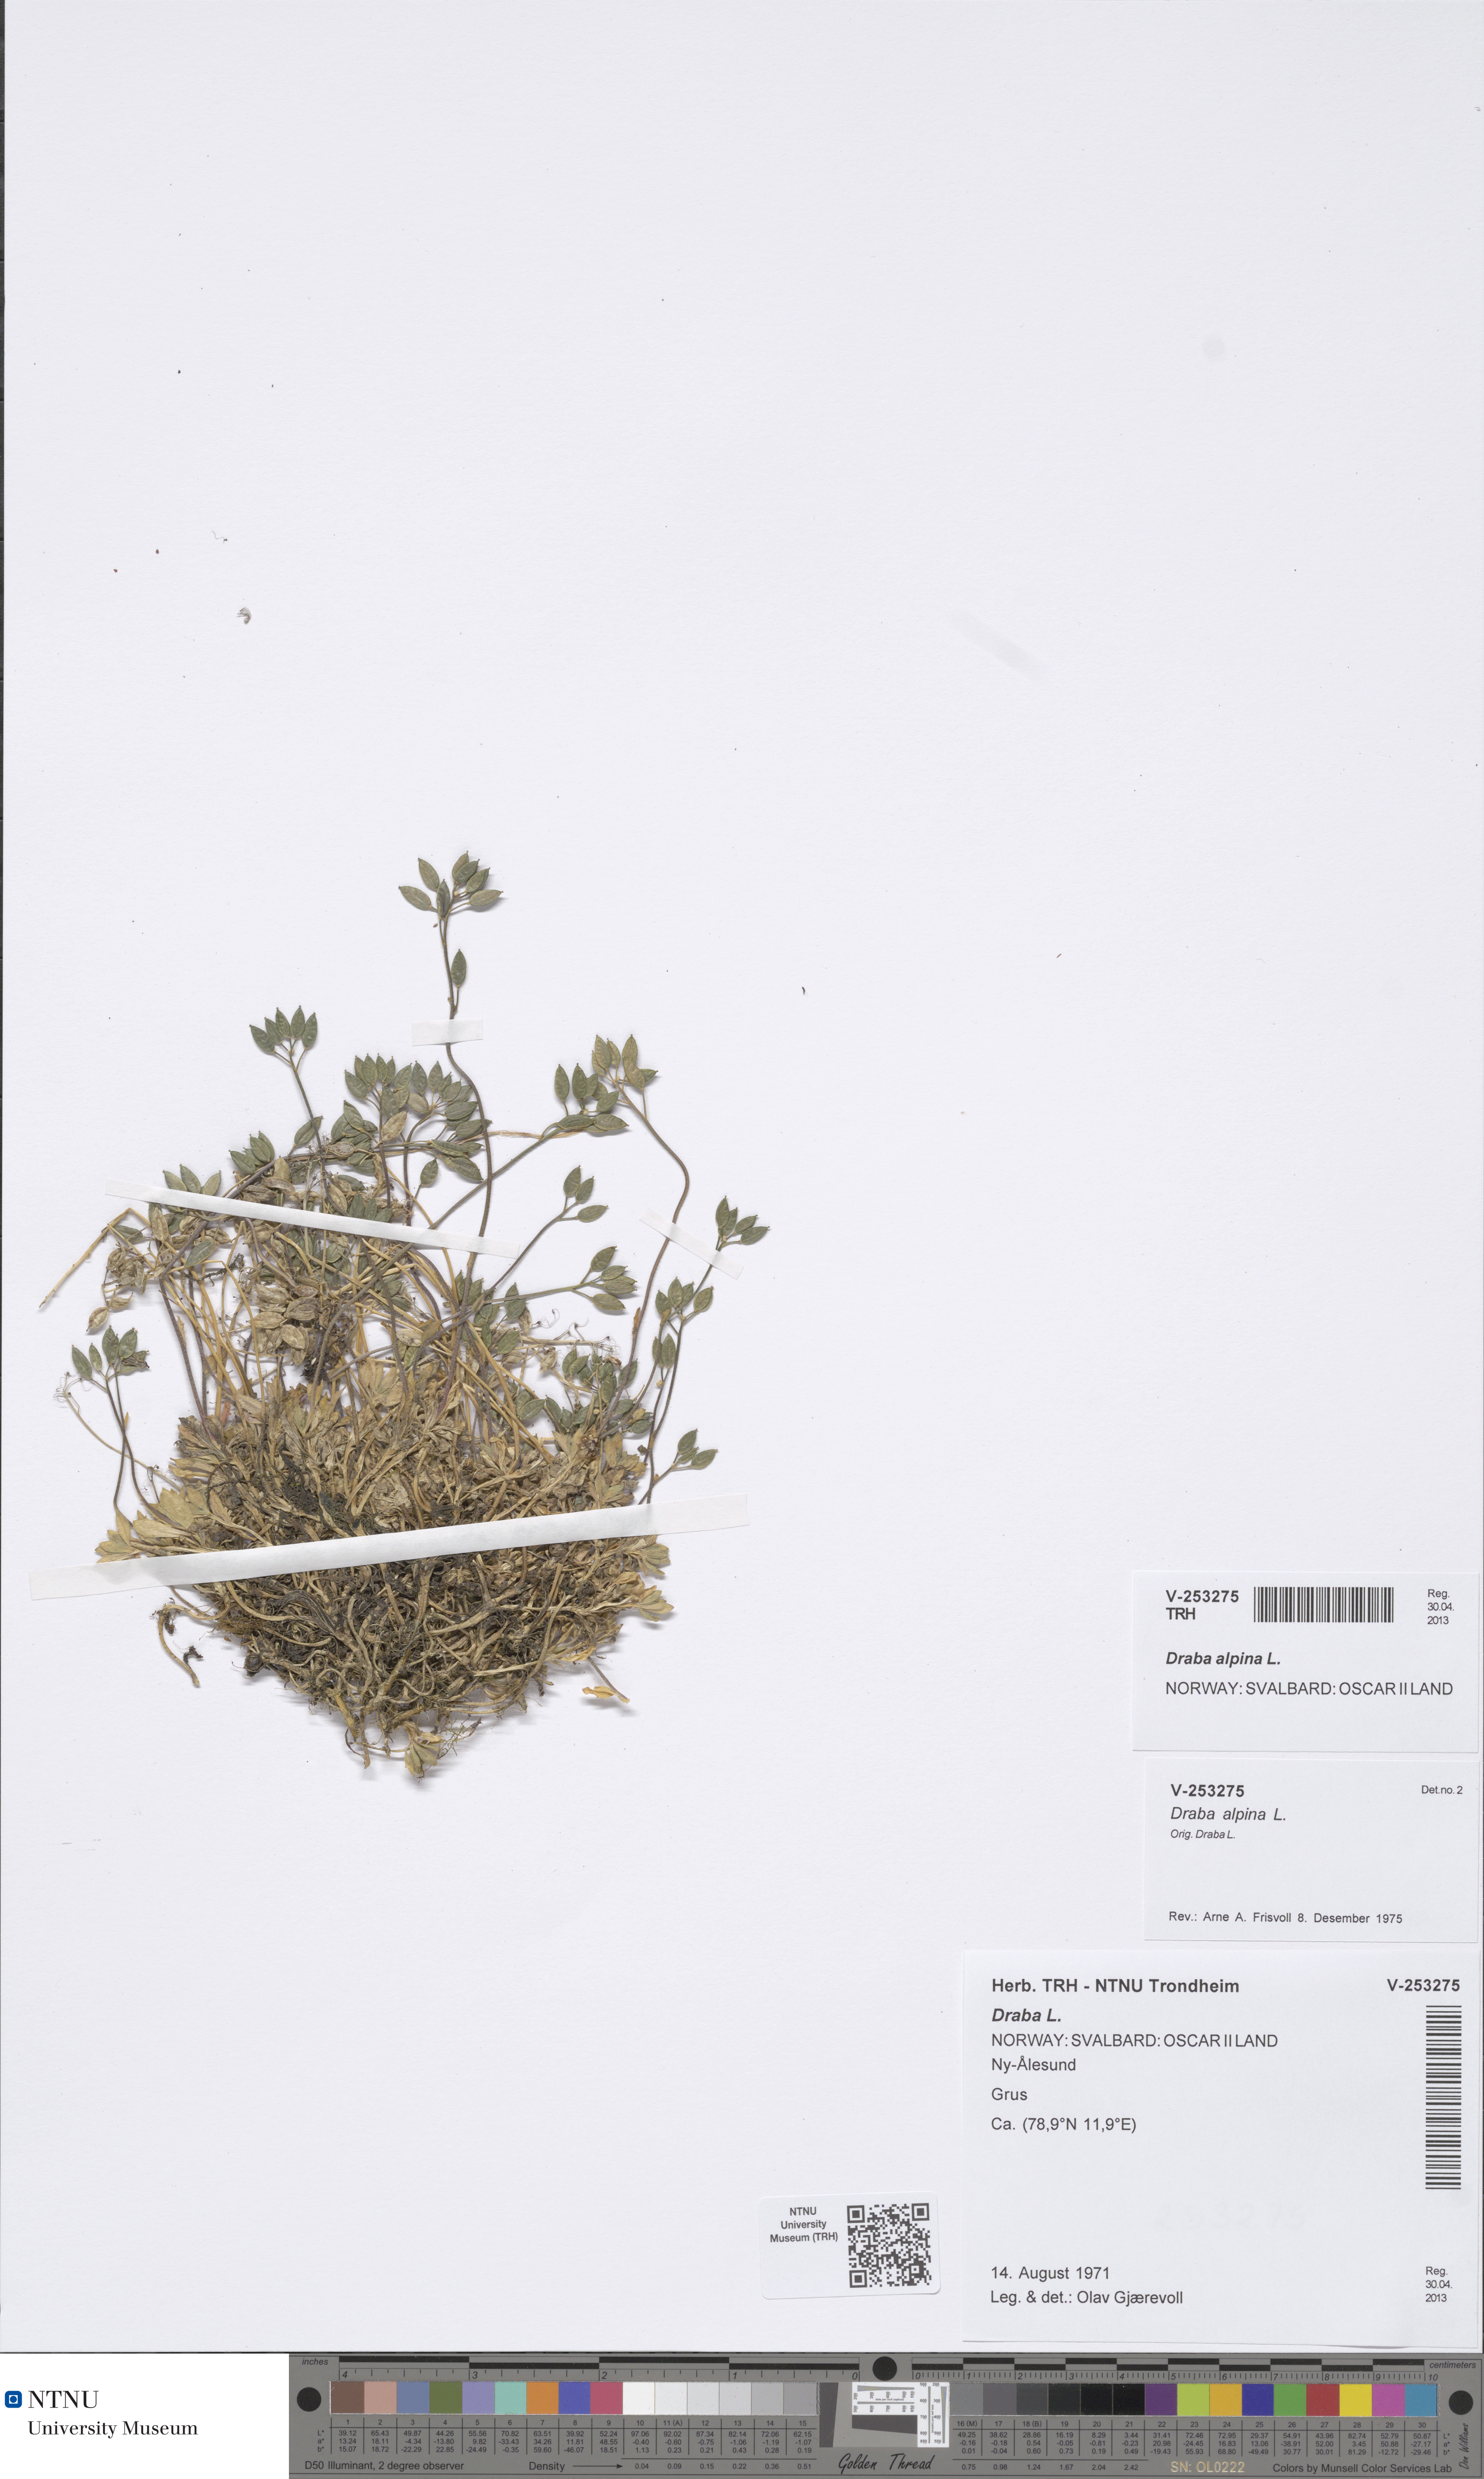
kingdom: Plantae
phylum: Tracheophyta
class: Magnoliopsida
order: Brassicales
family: Brassicaceae
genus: Draba
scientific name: Draba alpina
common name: Alpine draba
